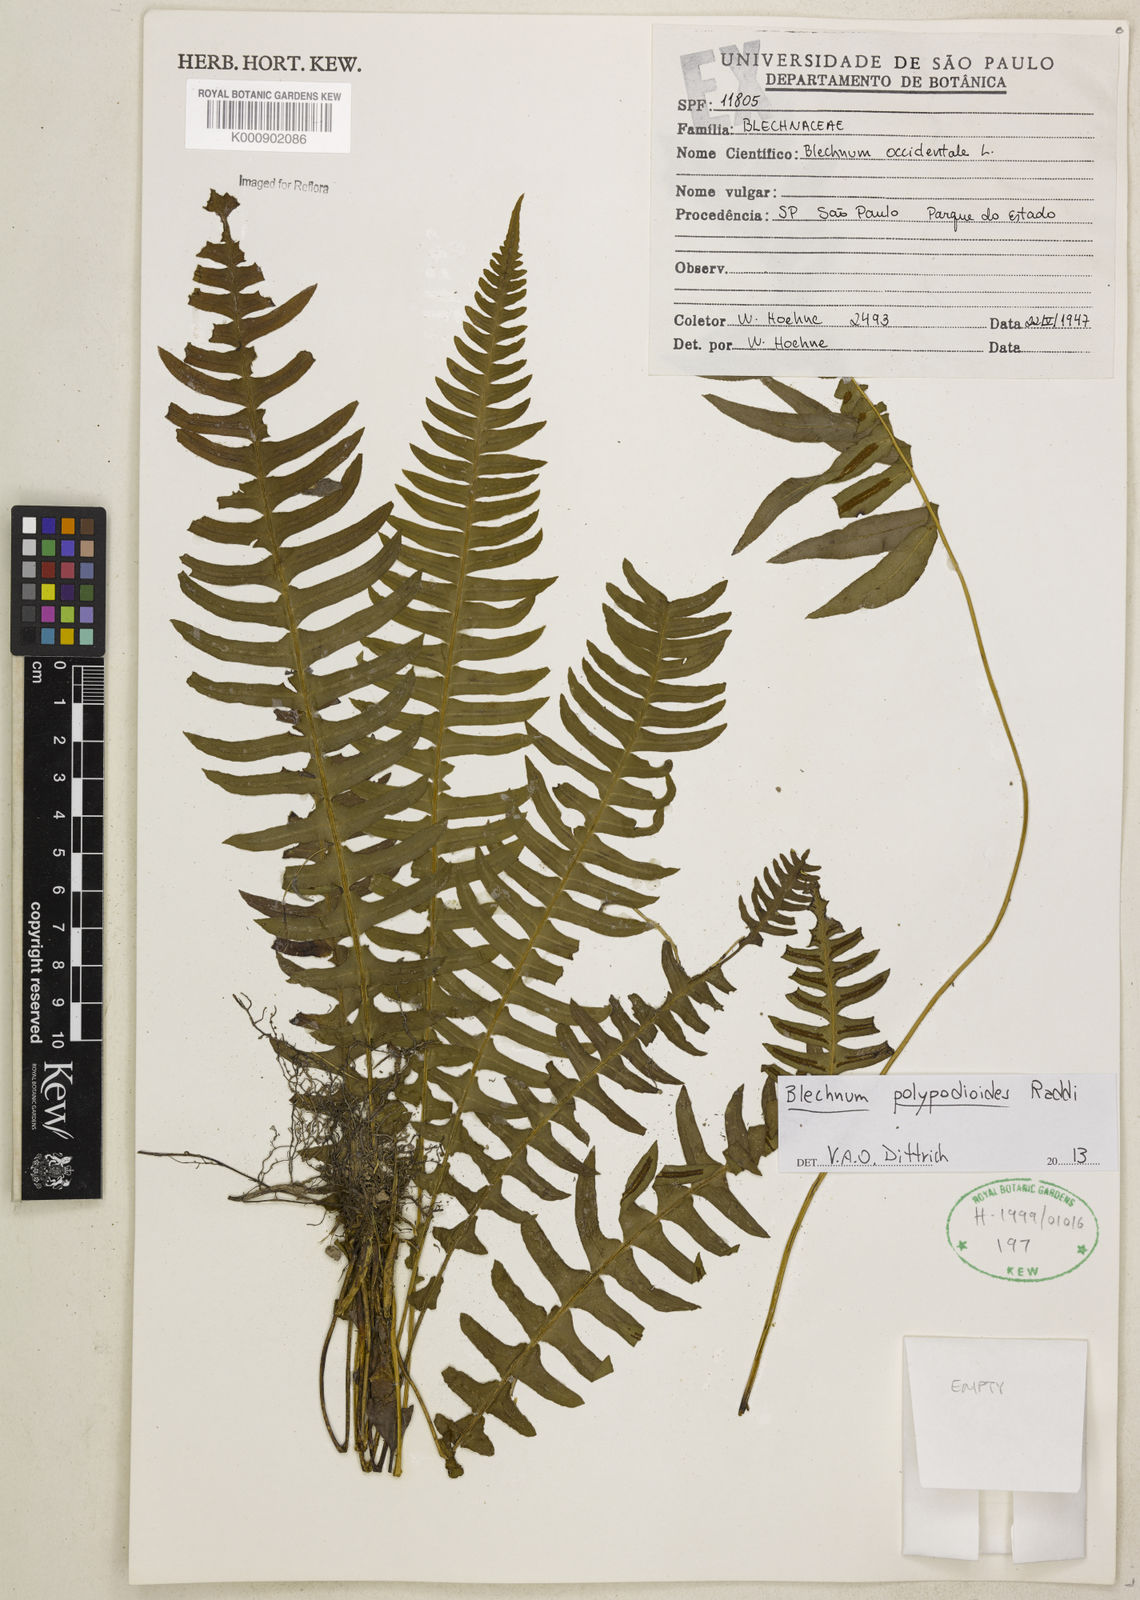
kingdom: Plantae
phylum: Tracheophyta
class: Polypodiopsida
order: Polypodiales
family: Blechnaceae
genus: Blechnum
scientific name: Blechnum polypodioides
